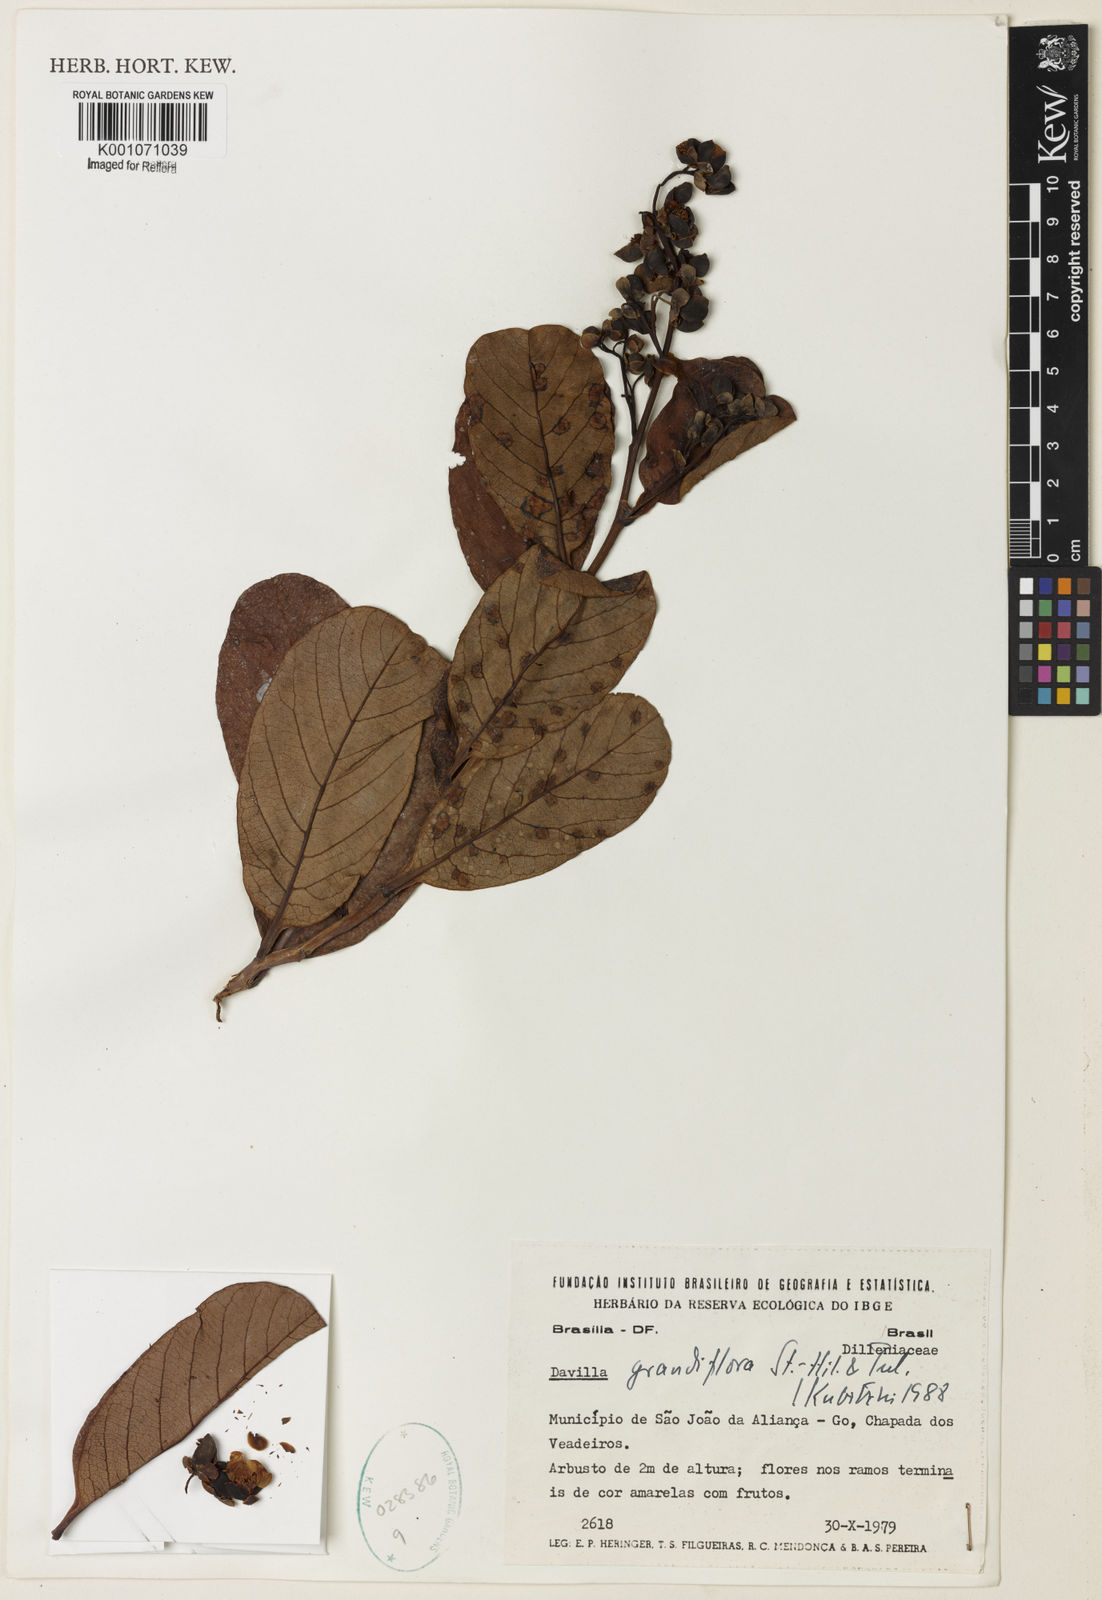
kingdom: Plantae
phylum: Tracheophyta
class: Magnoliopsida
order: Dilleniales
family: Dilleniaceae
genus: Davilla
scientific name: Davilla grandiflora
